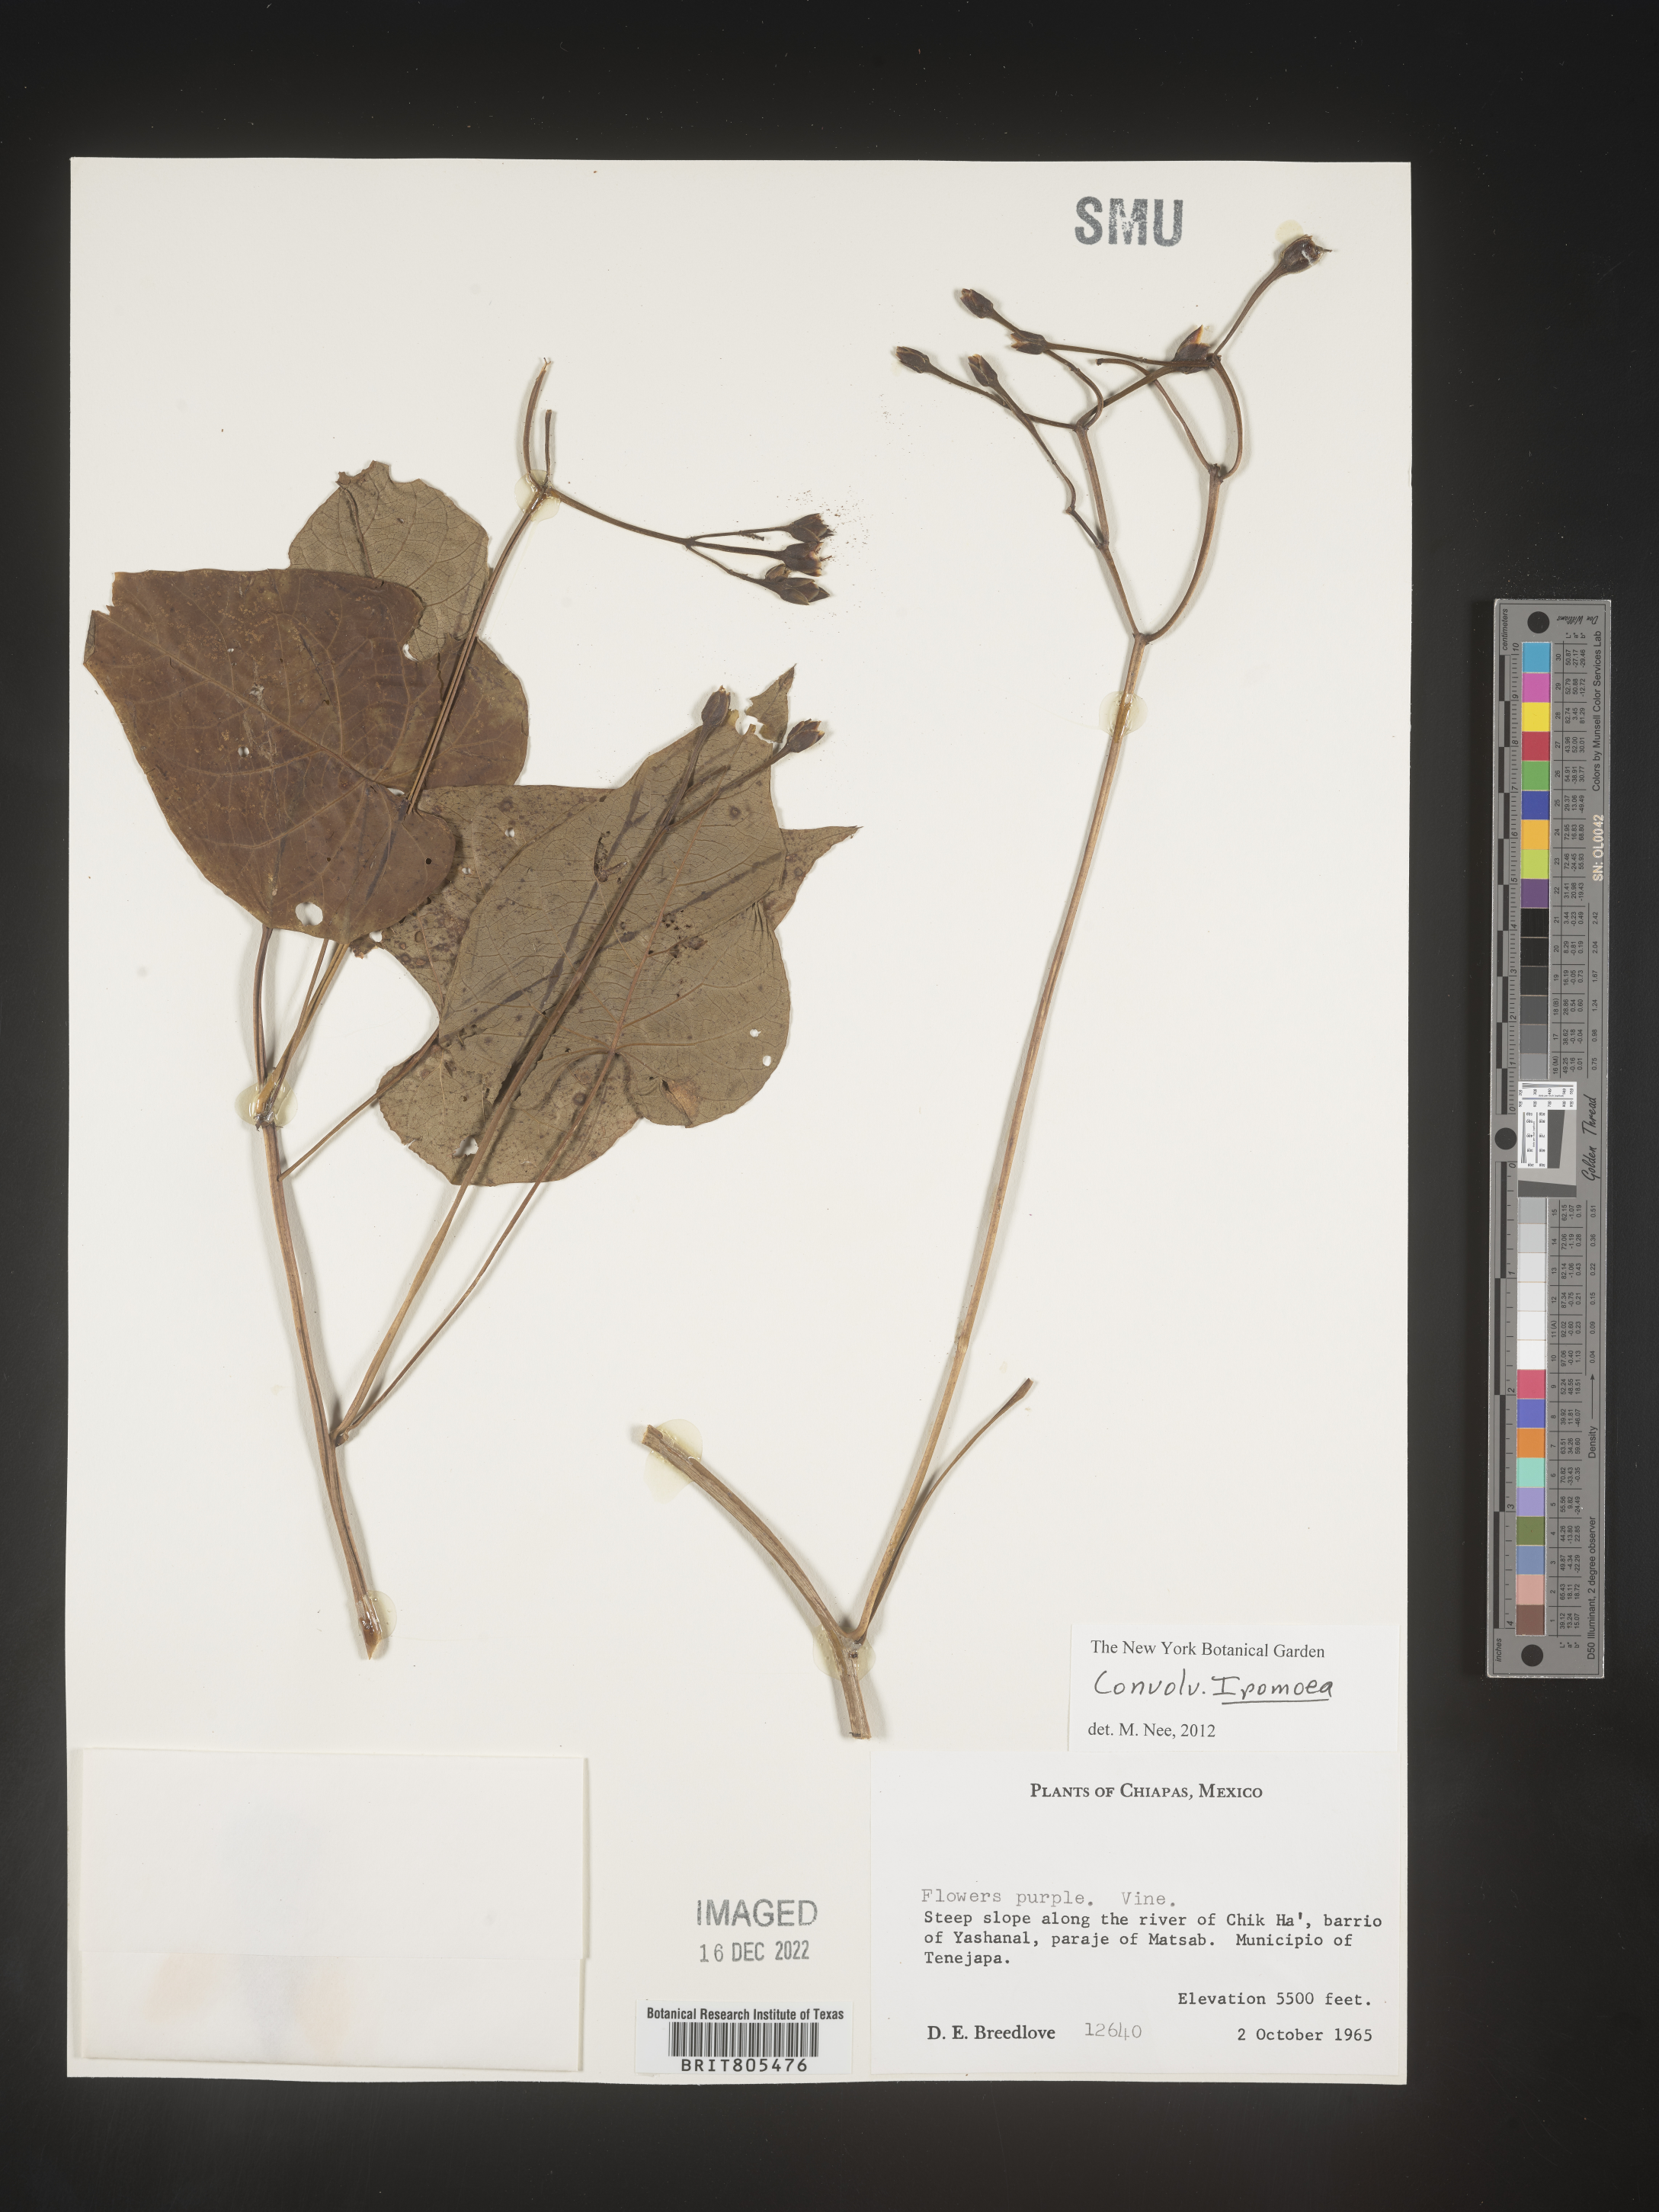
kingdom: Plantae
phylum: Tracheophyta
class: Magnoliopsida
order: Solanales
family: Convolvulaceae
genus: Ipomoea
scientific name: Ipomoea
